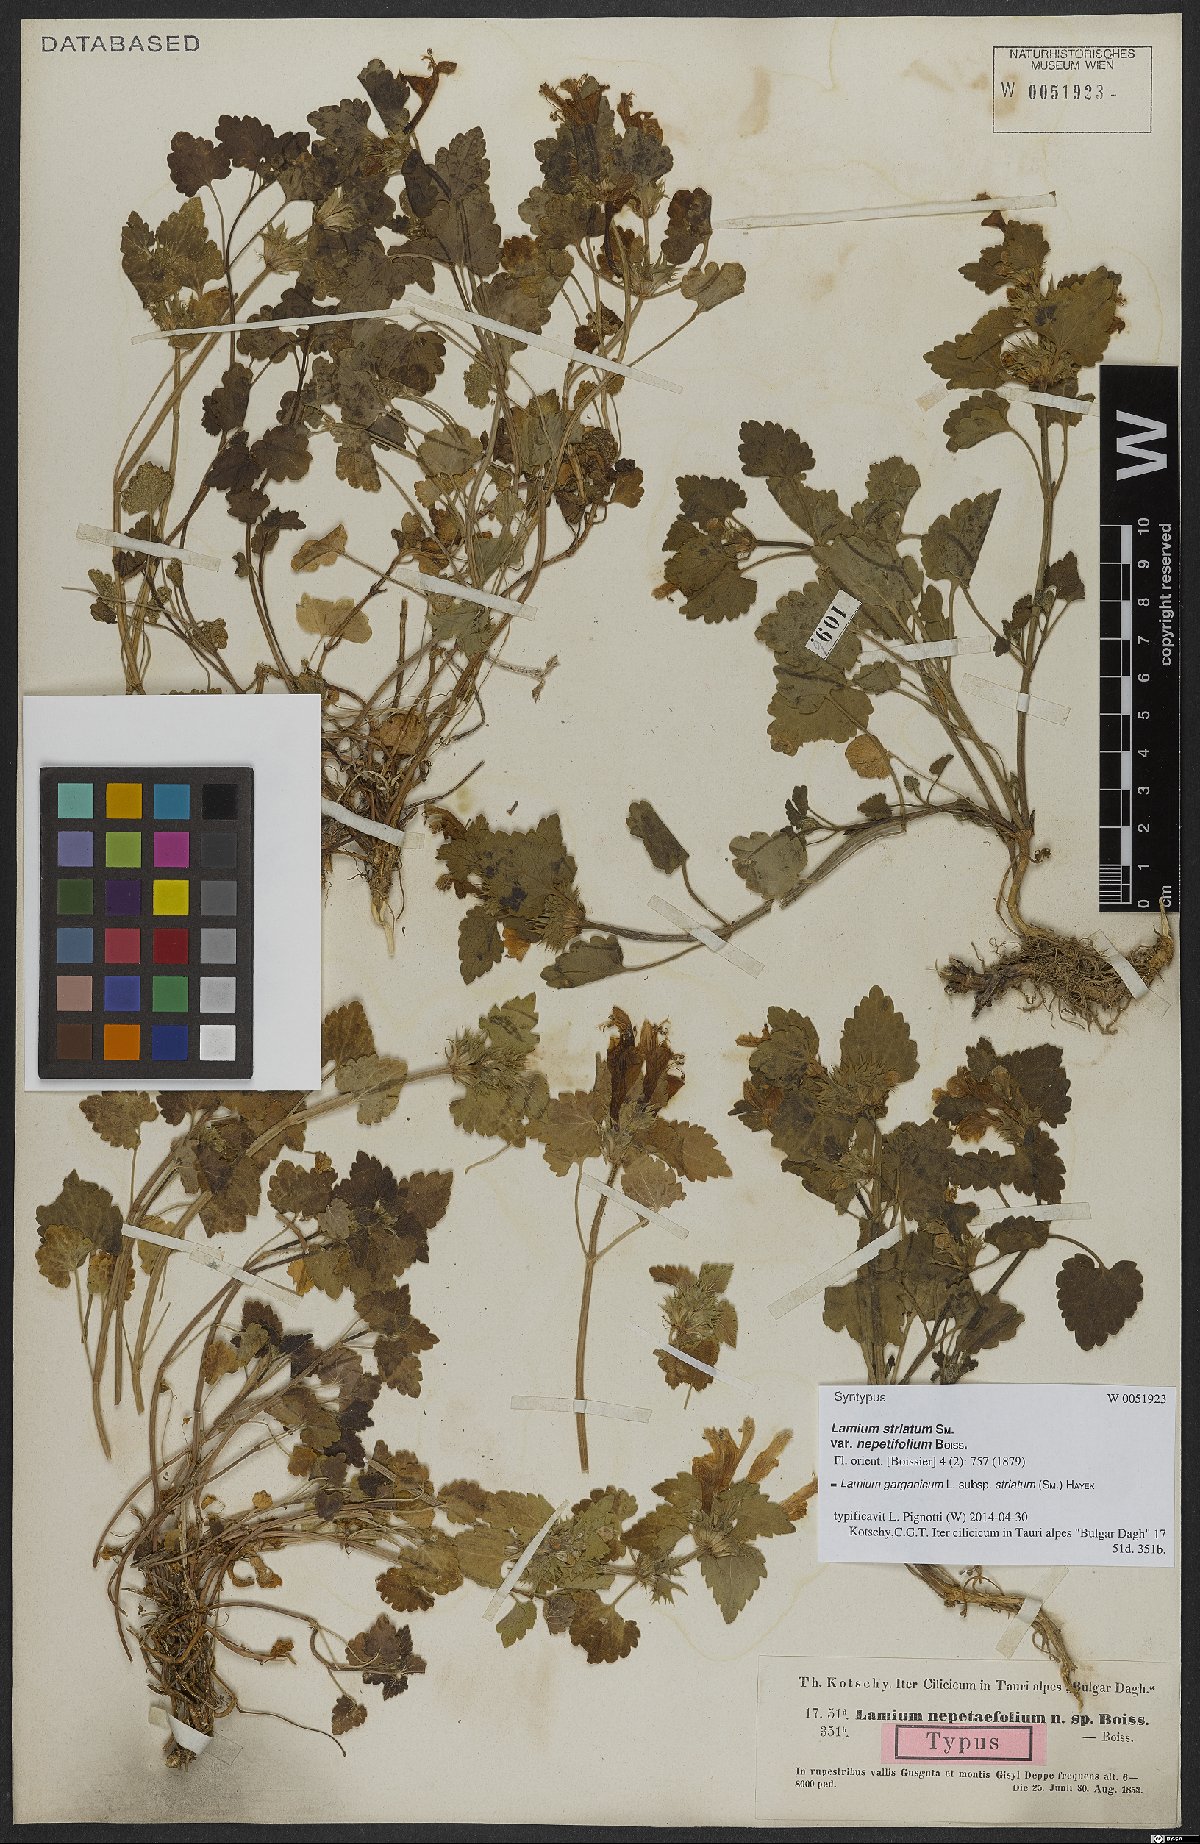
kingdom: Plantae
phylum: Tracheophyta
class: Magnoliopsida
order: Lamiales
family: Lamiaceae
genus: Lamium
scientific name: Lamium garganicum
